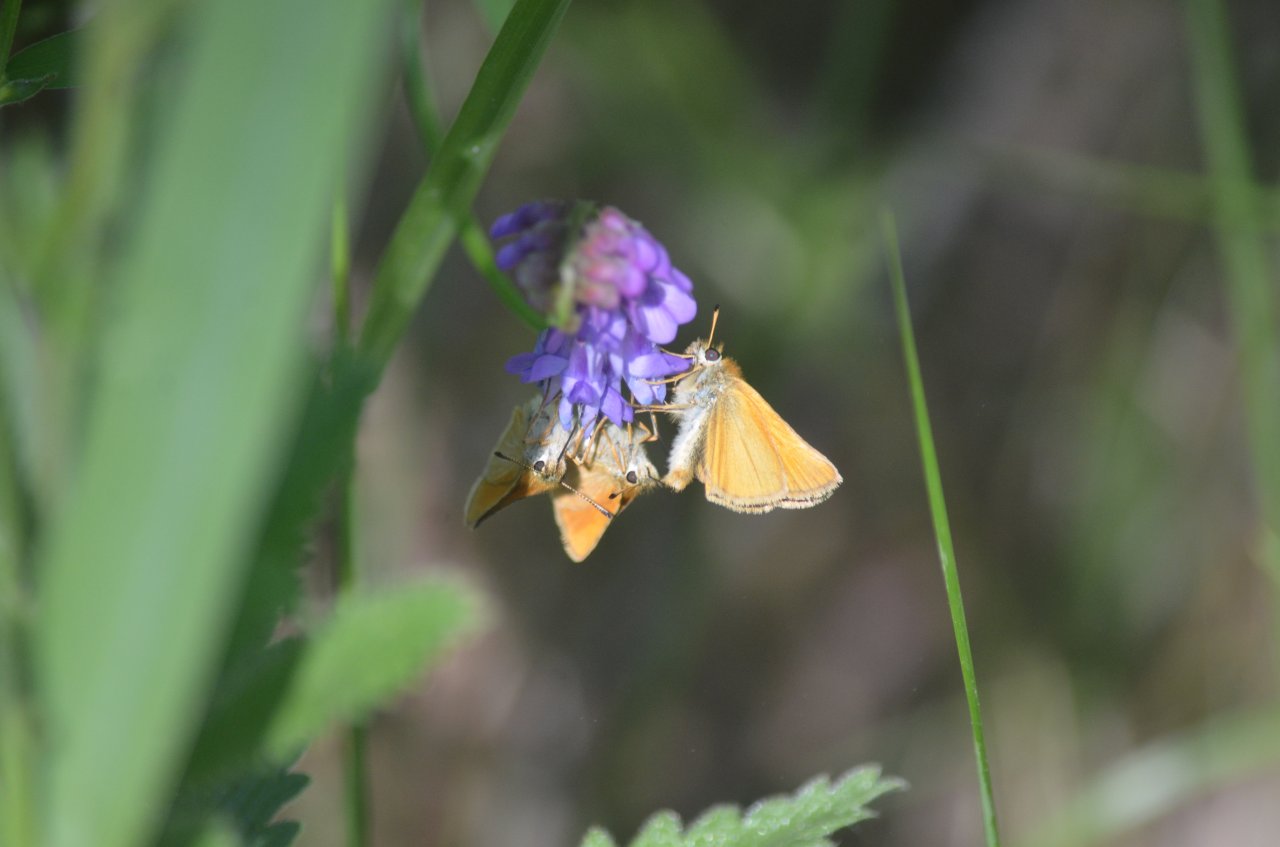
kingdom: Animalia
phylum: Arthropoda
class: Insecta
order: Lepidoptera
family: Hesperiidae
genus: Thymelicus
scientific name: Thymelicus lineola
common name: European Skipper
